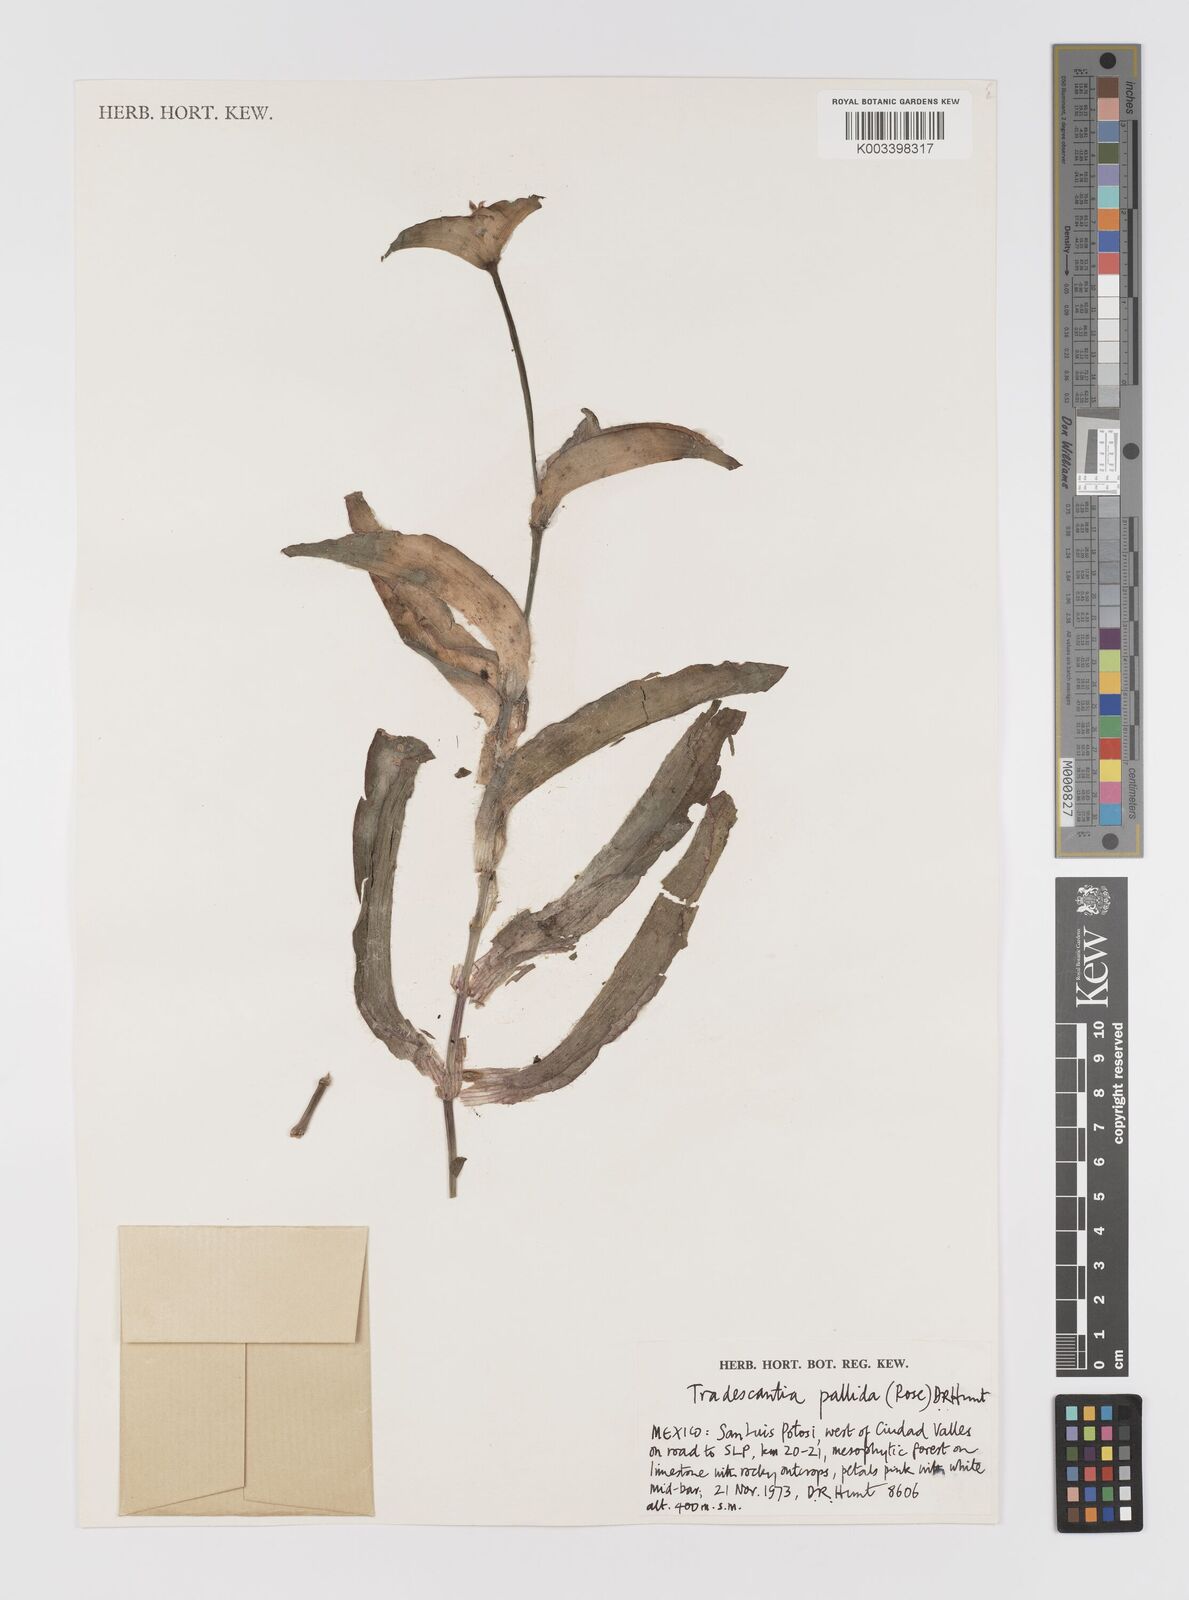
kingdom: Plantae
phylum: Tracheophyta
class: Liliopsida
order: Commelinales
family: Commelinaceae
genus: Tradescantia
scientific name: Tradescantia pallida
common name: Purpleheart
